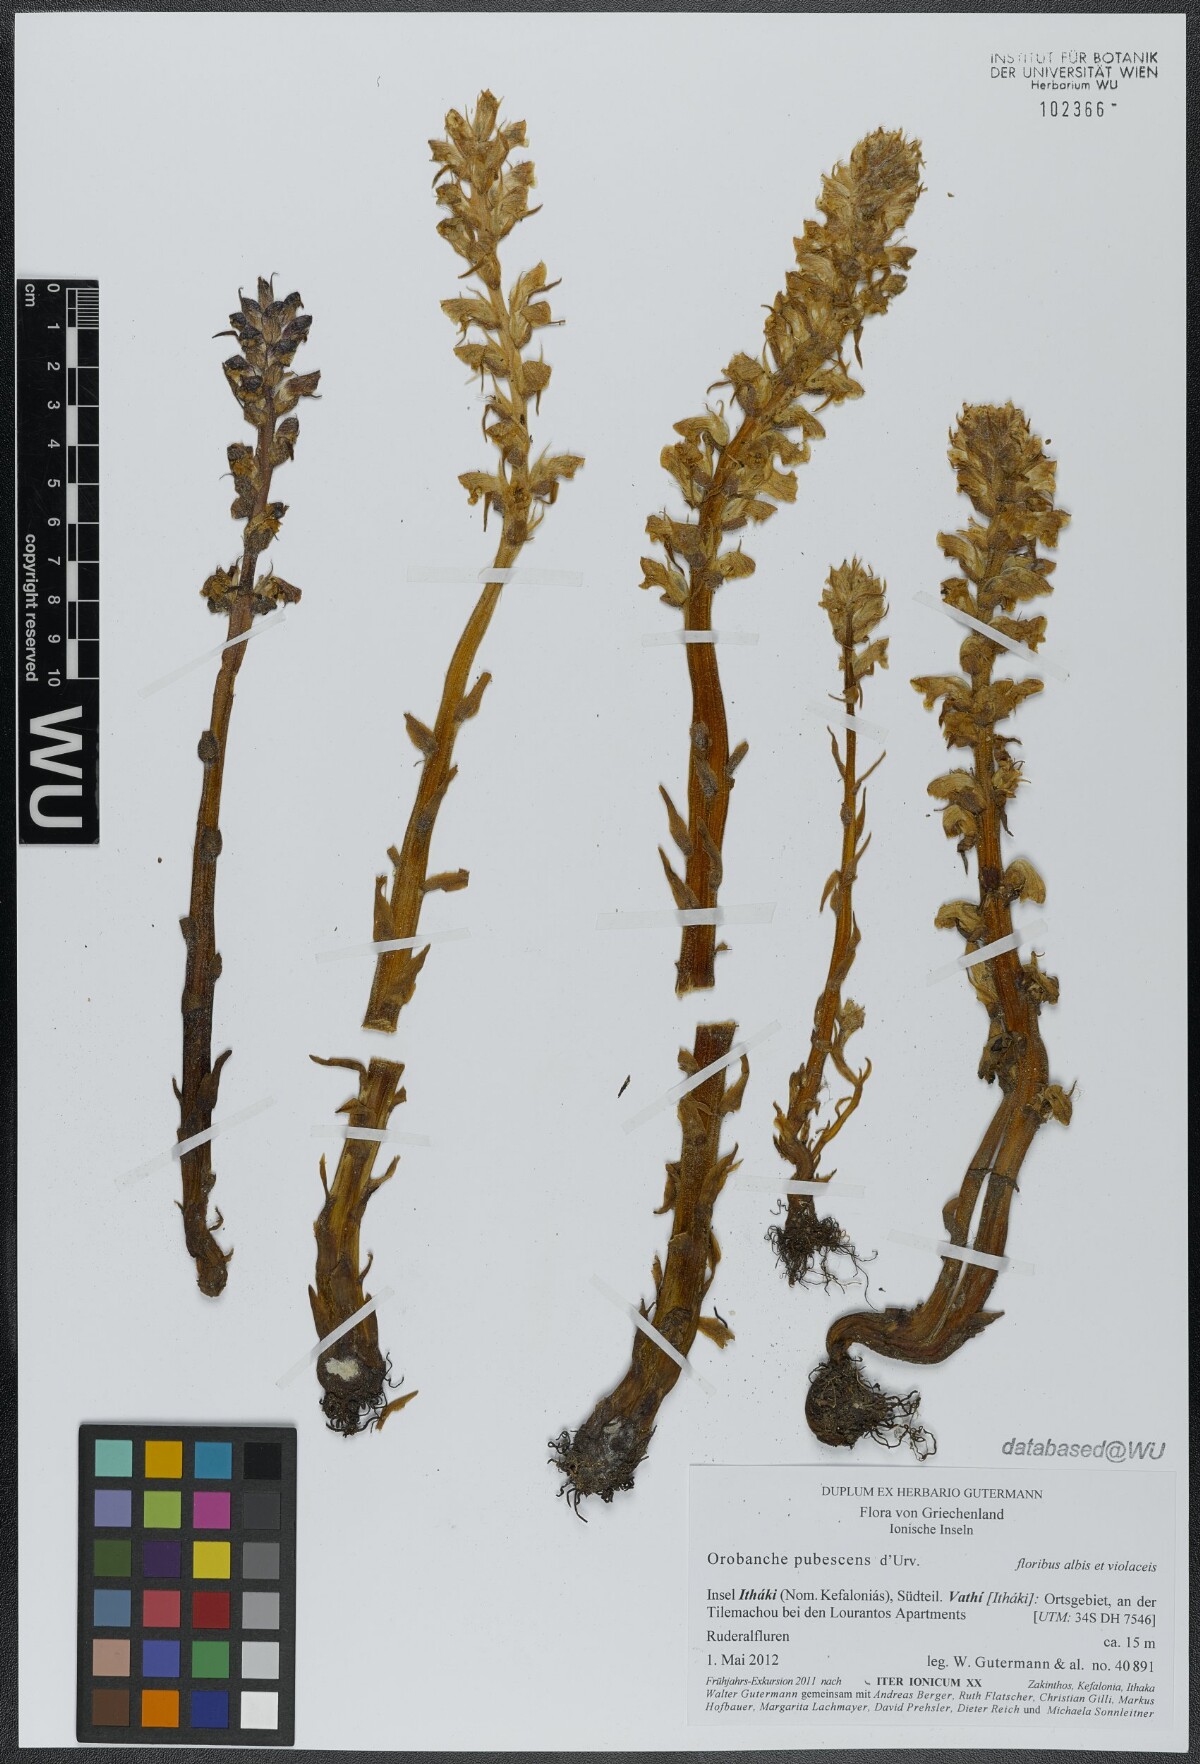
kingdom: Plantae
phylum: Tracheophyta
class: Magnoliopsida
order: Lamiales
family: Orobanchaceae
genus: Orobanche
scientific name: Orobanche pubescens
